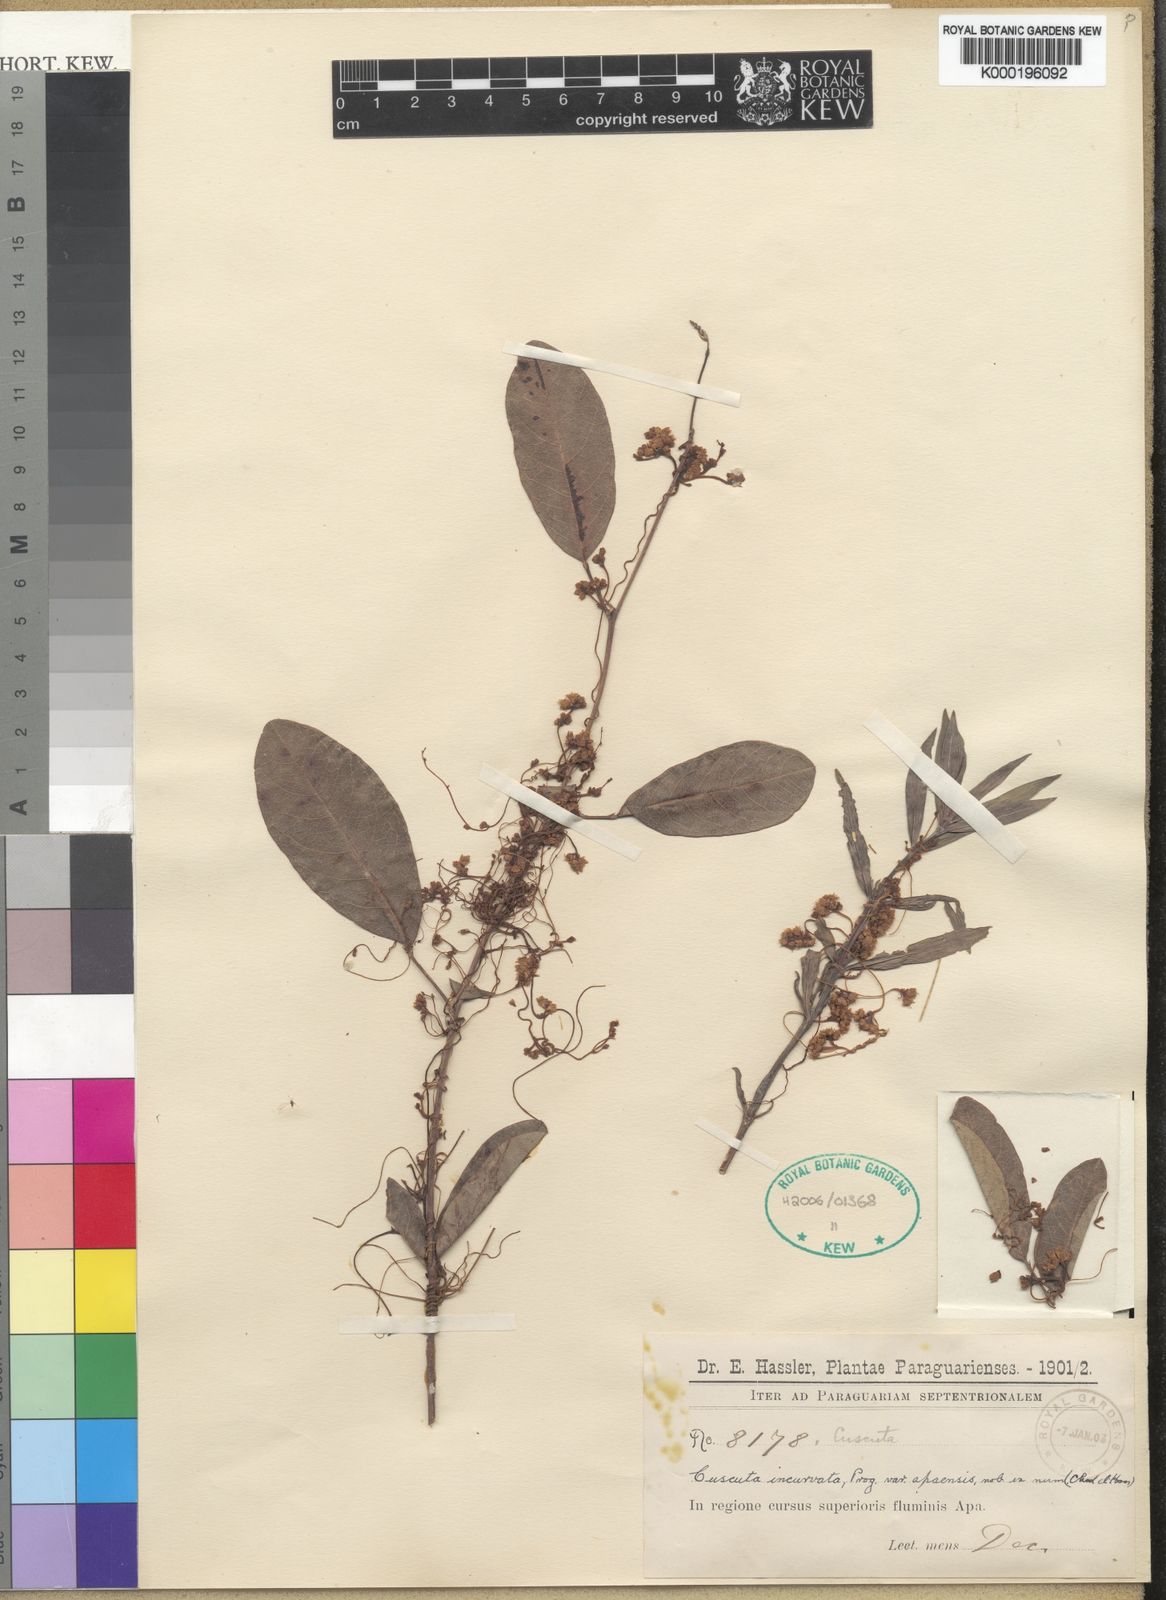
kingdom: Plantae
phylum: Tracheophyta
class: Magnoliopsida
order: Solanales
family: Convolvulaceae
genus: Cuscuta
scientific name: Cuscuta incurvata
